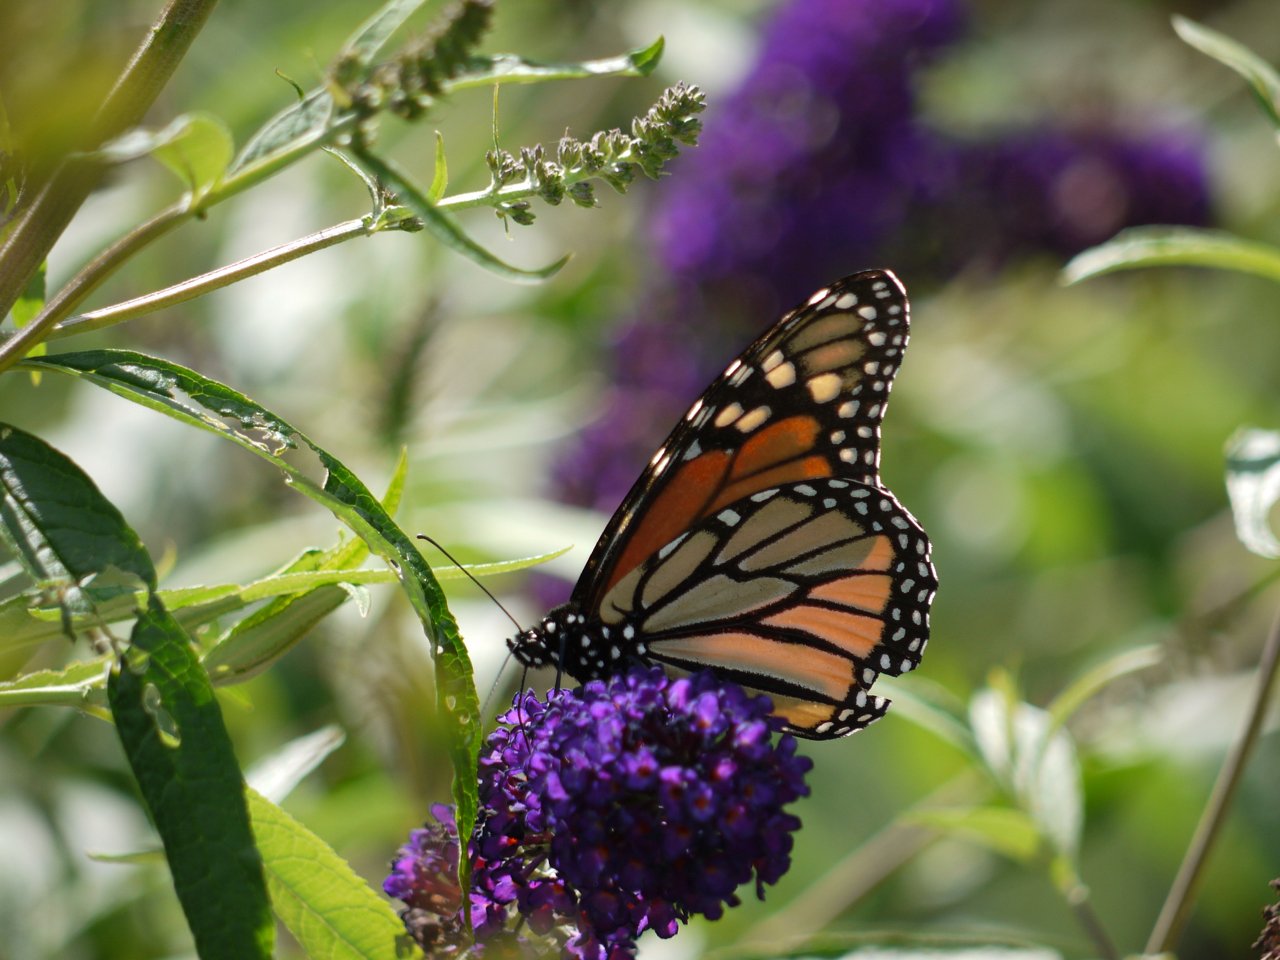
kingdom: Animalia
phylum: Arthropoda
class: Insecta
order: Lepidoptera
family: Nymphalidae
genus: Danaus
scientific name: Danaus plexippus
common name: Monarch
